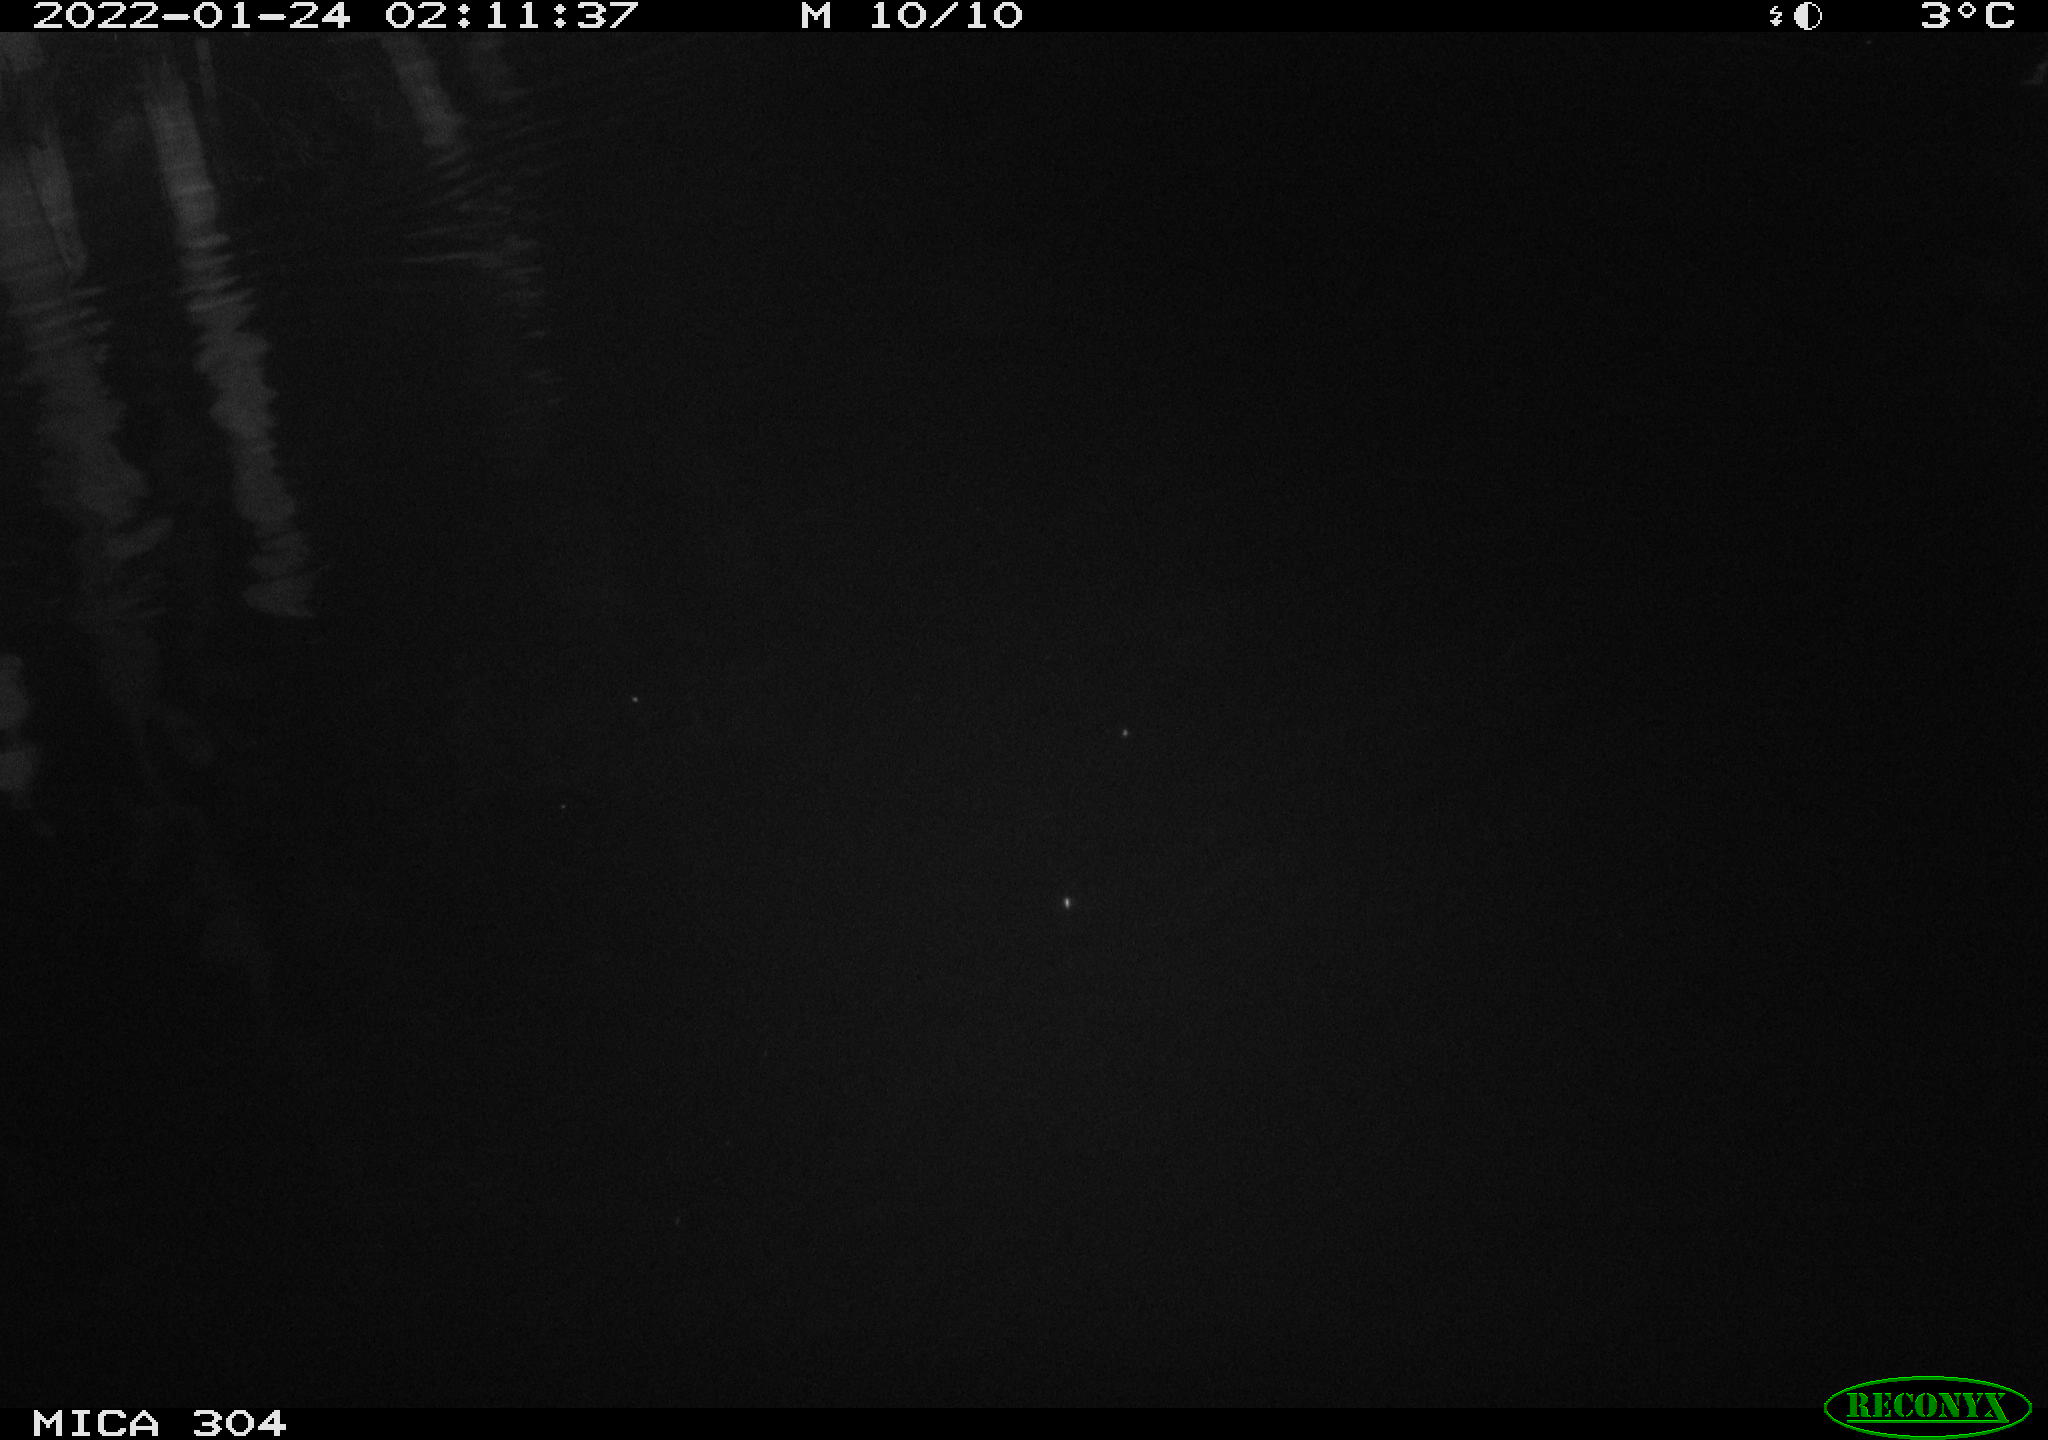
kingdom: Animalia
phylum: Chordata
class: Aves
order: Anseriformes
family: Anatidae
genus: Anas
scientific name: Anas
